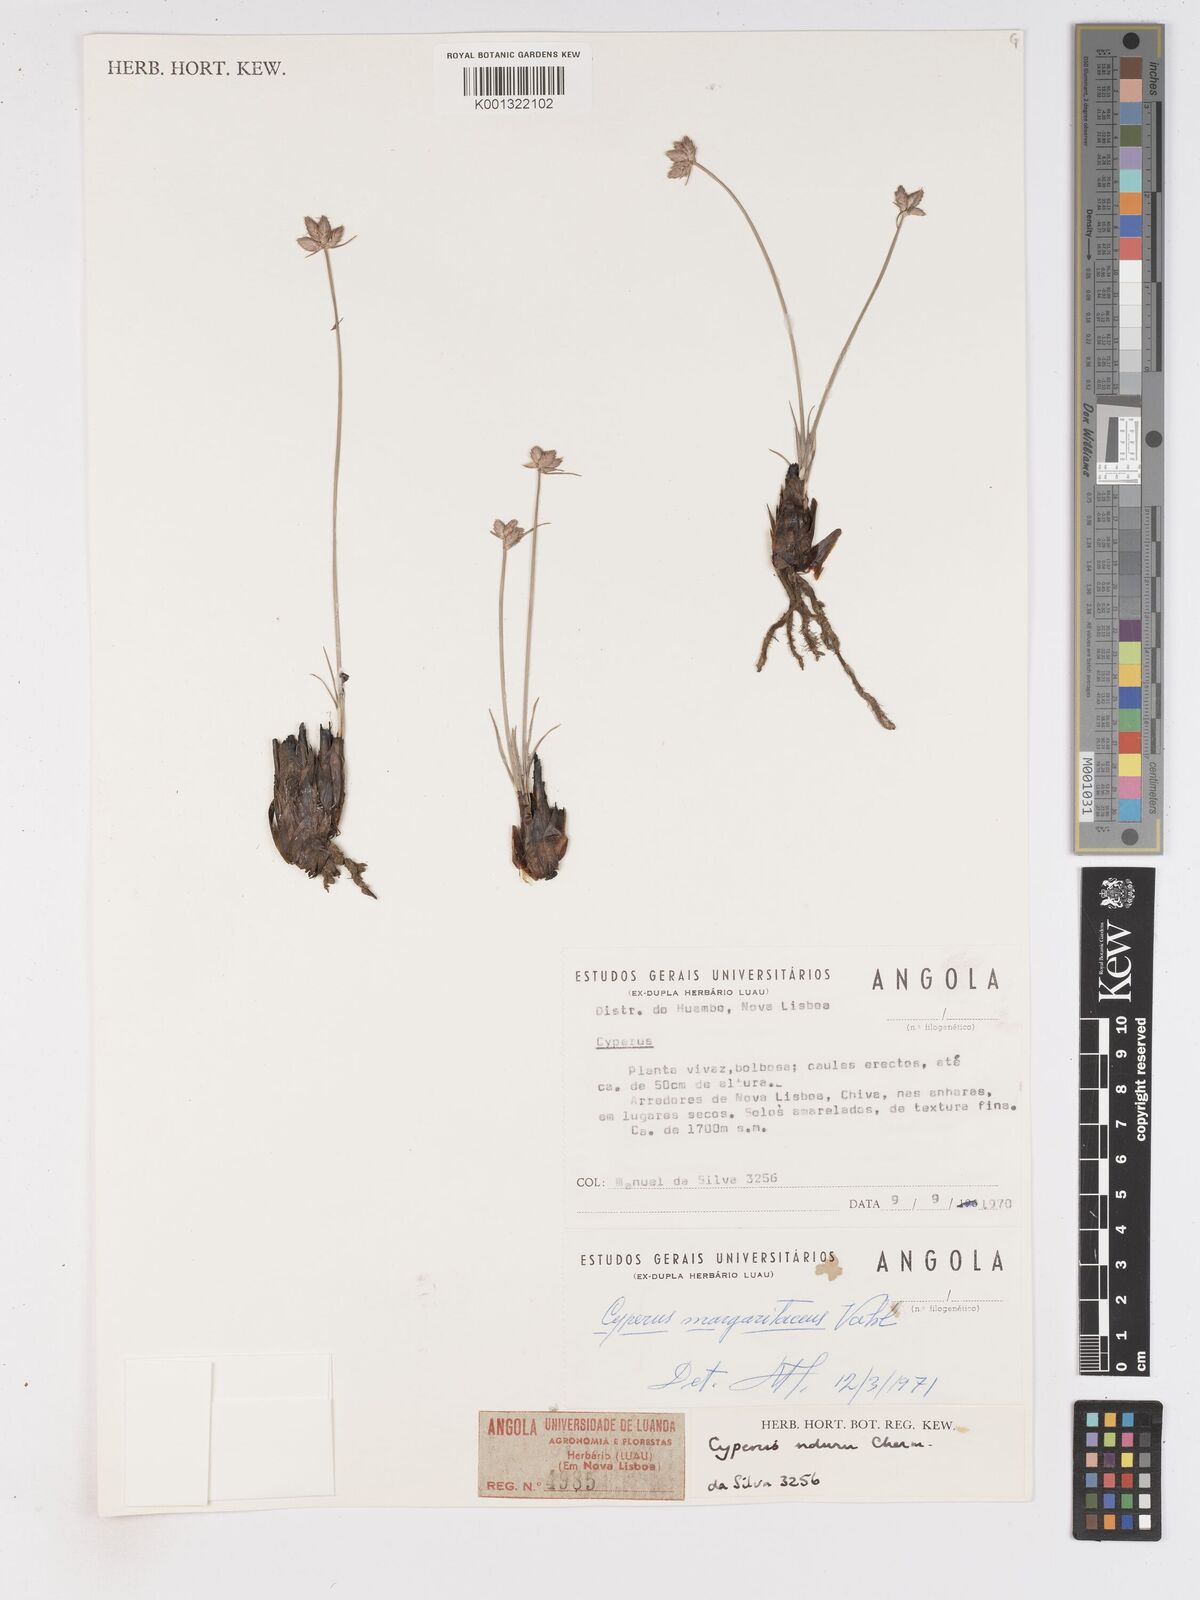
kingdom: Plantae
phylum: Tracheophyta
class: Liliopsida
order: Poales
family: Cyperaceae
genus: Cyperus
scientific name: Cyperus nduru
